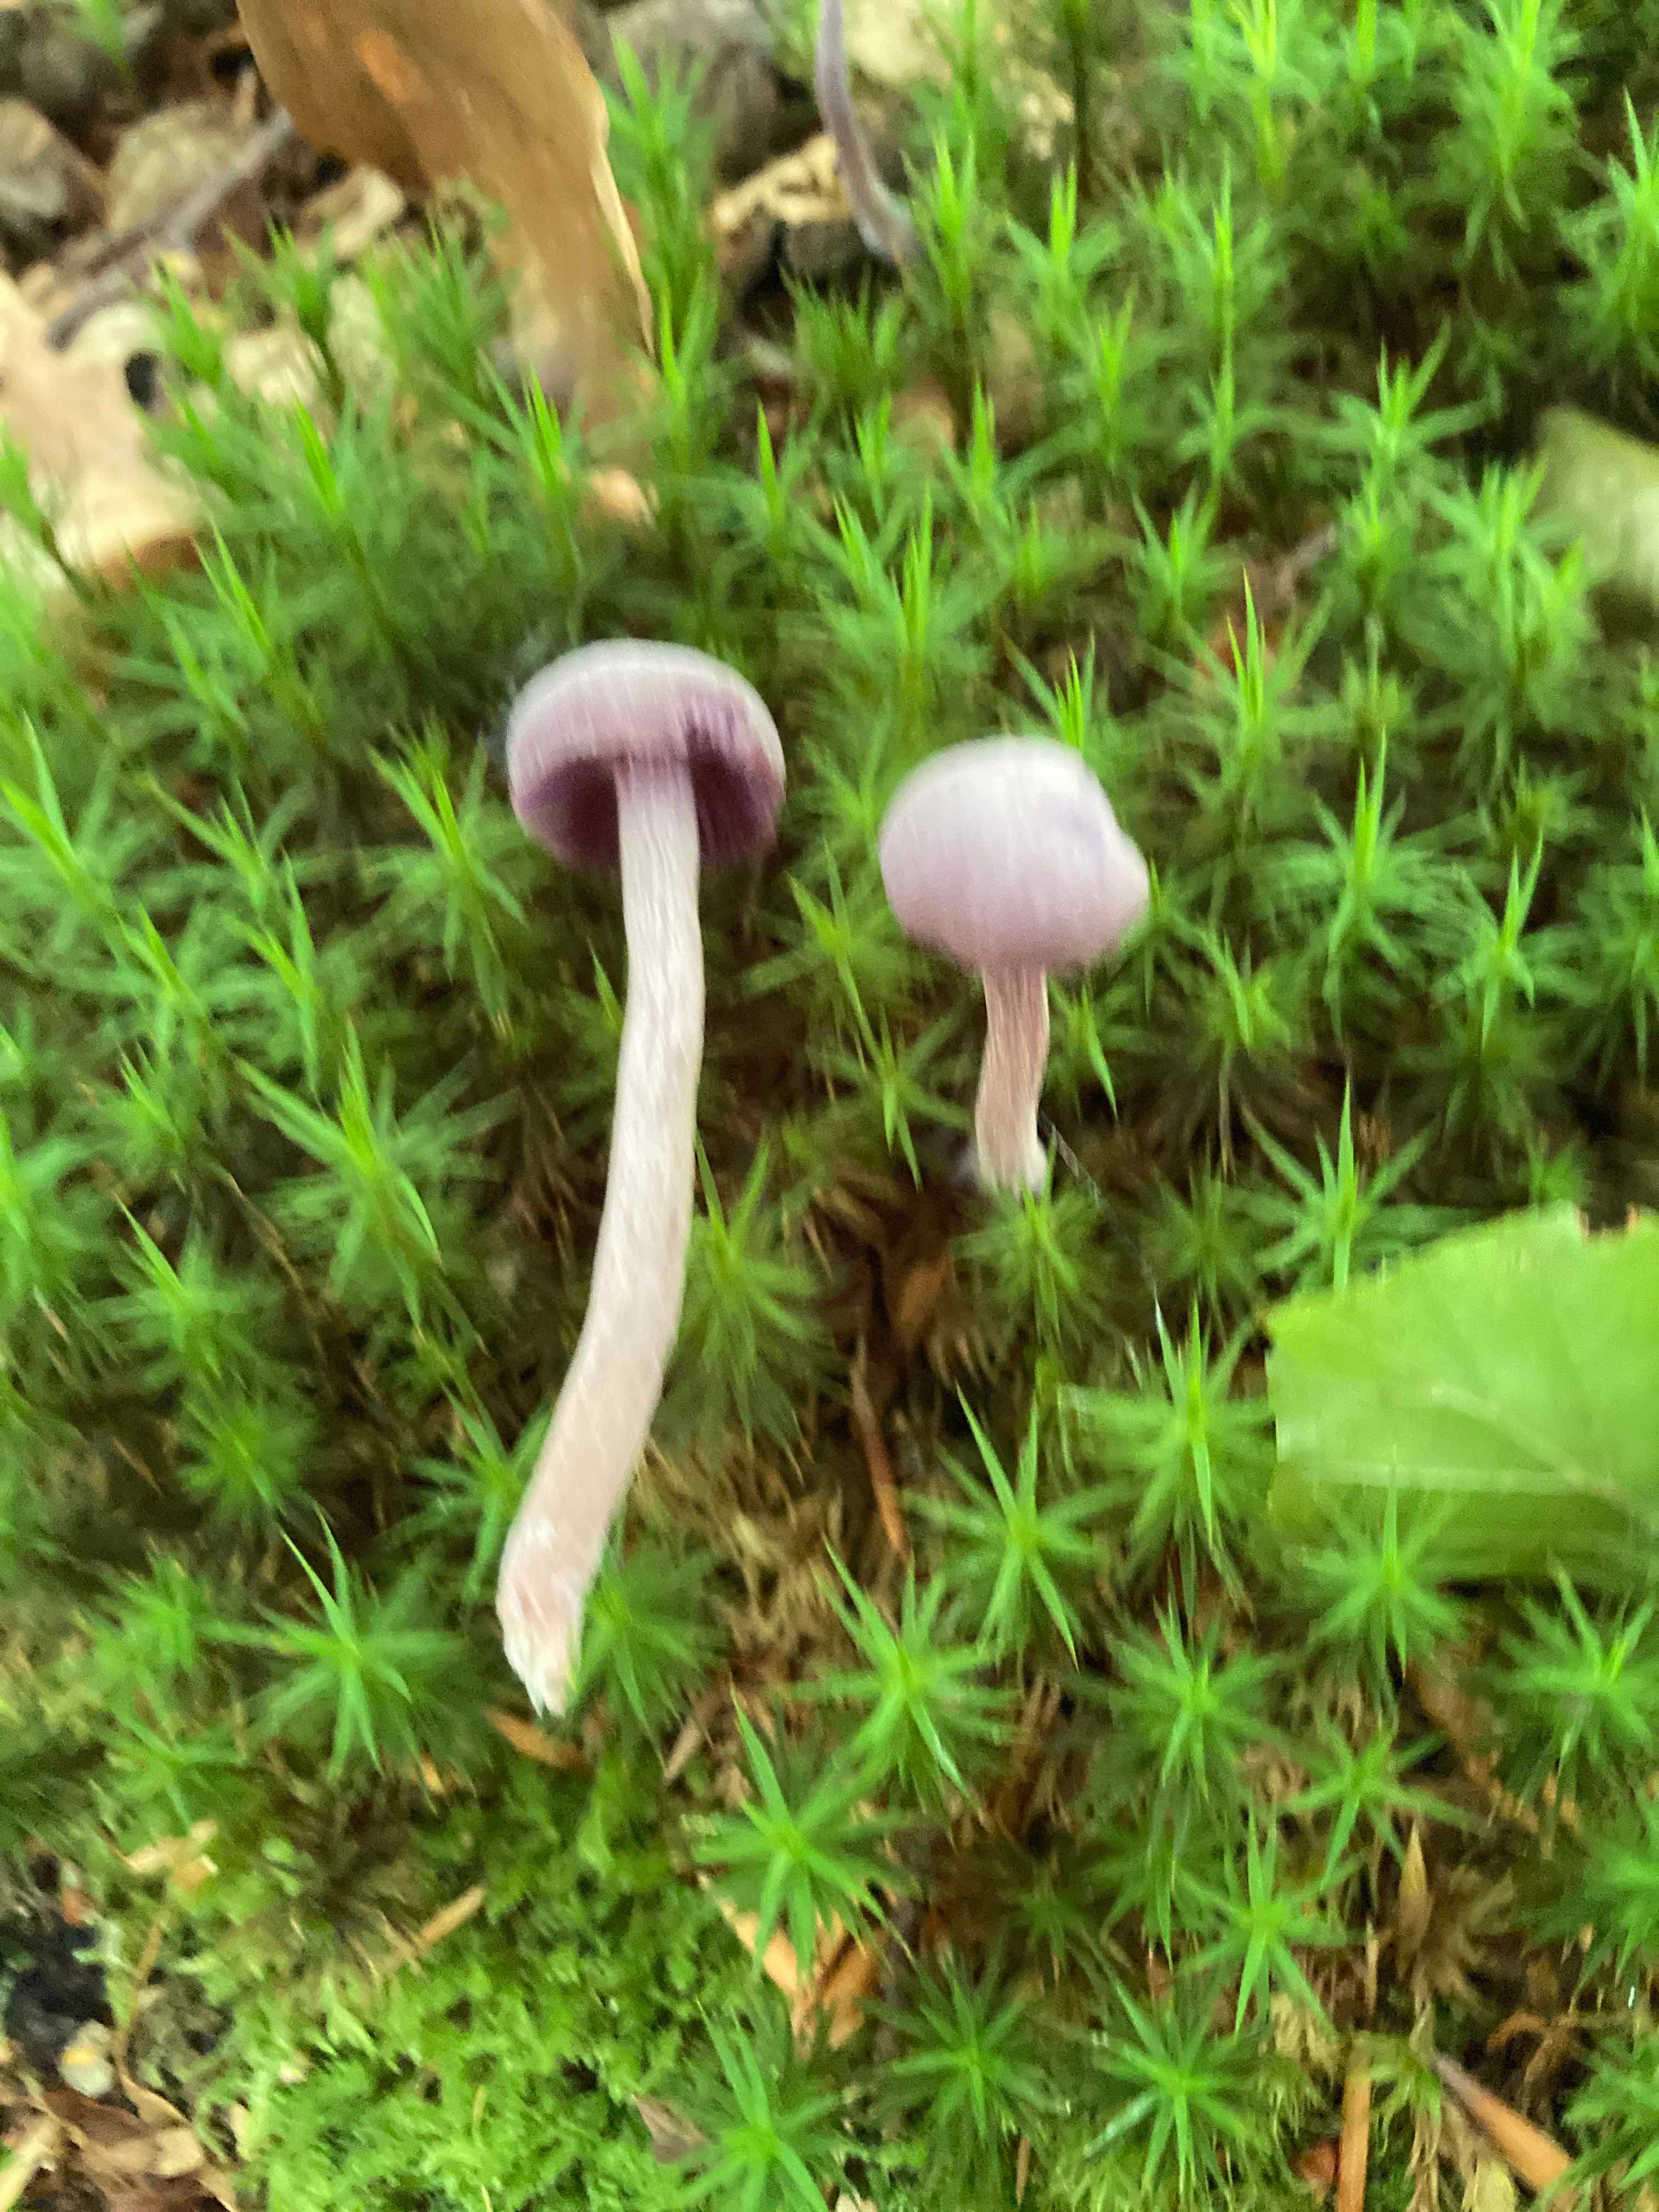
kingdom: Fungi
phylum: Basidiomycota
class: Agaricomycetes
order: Agaricales
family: Hydnangiaceae
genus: Laccaria
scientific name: Laccaria amethystina
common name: violet ametysthat
